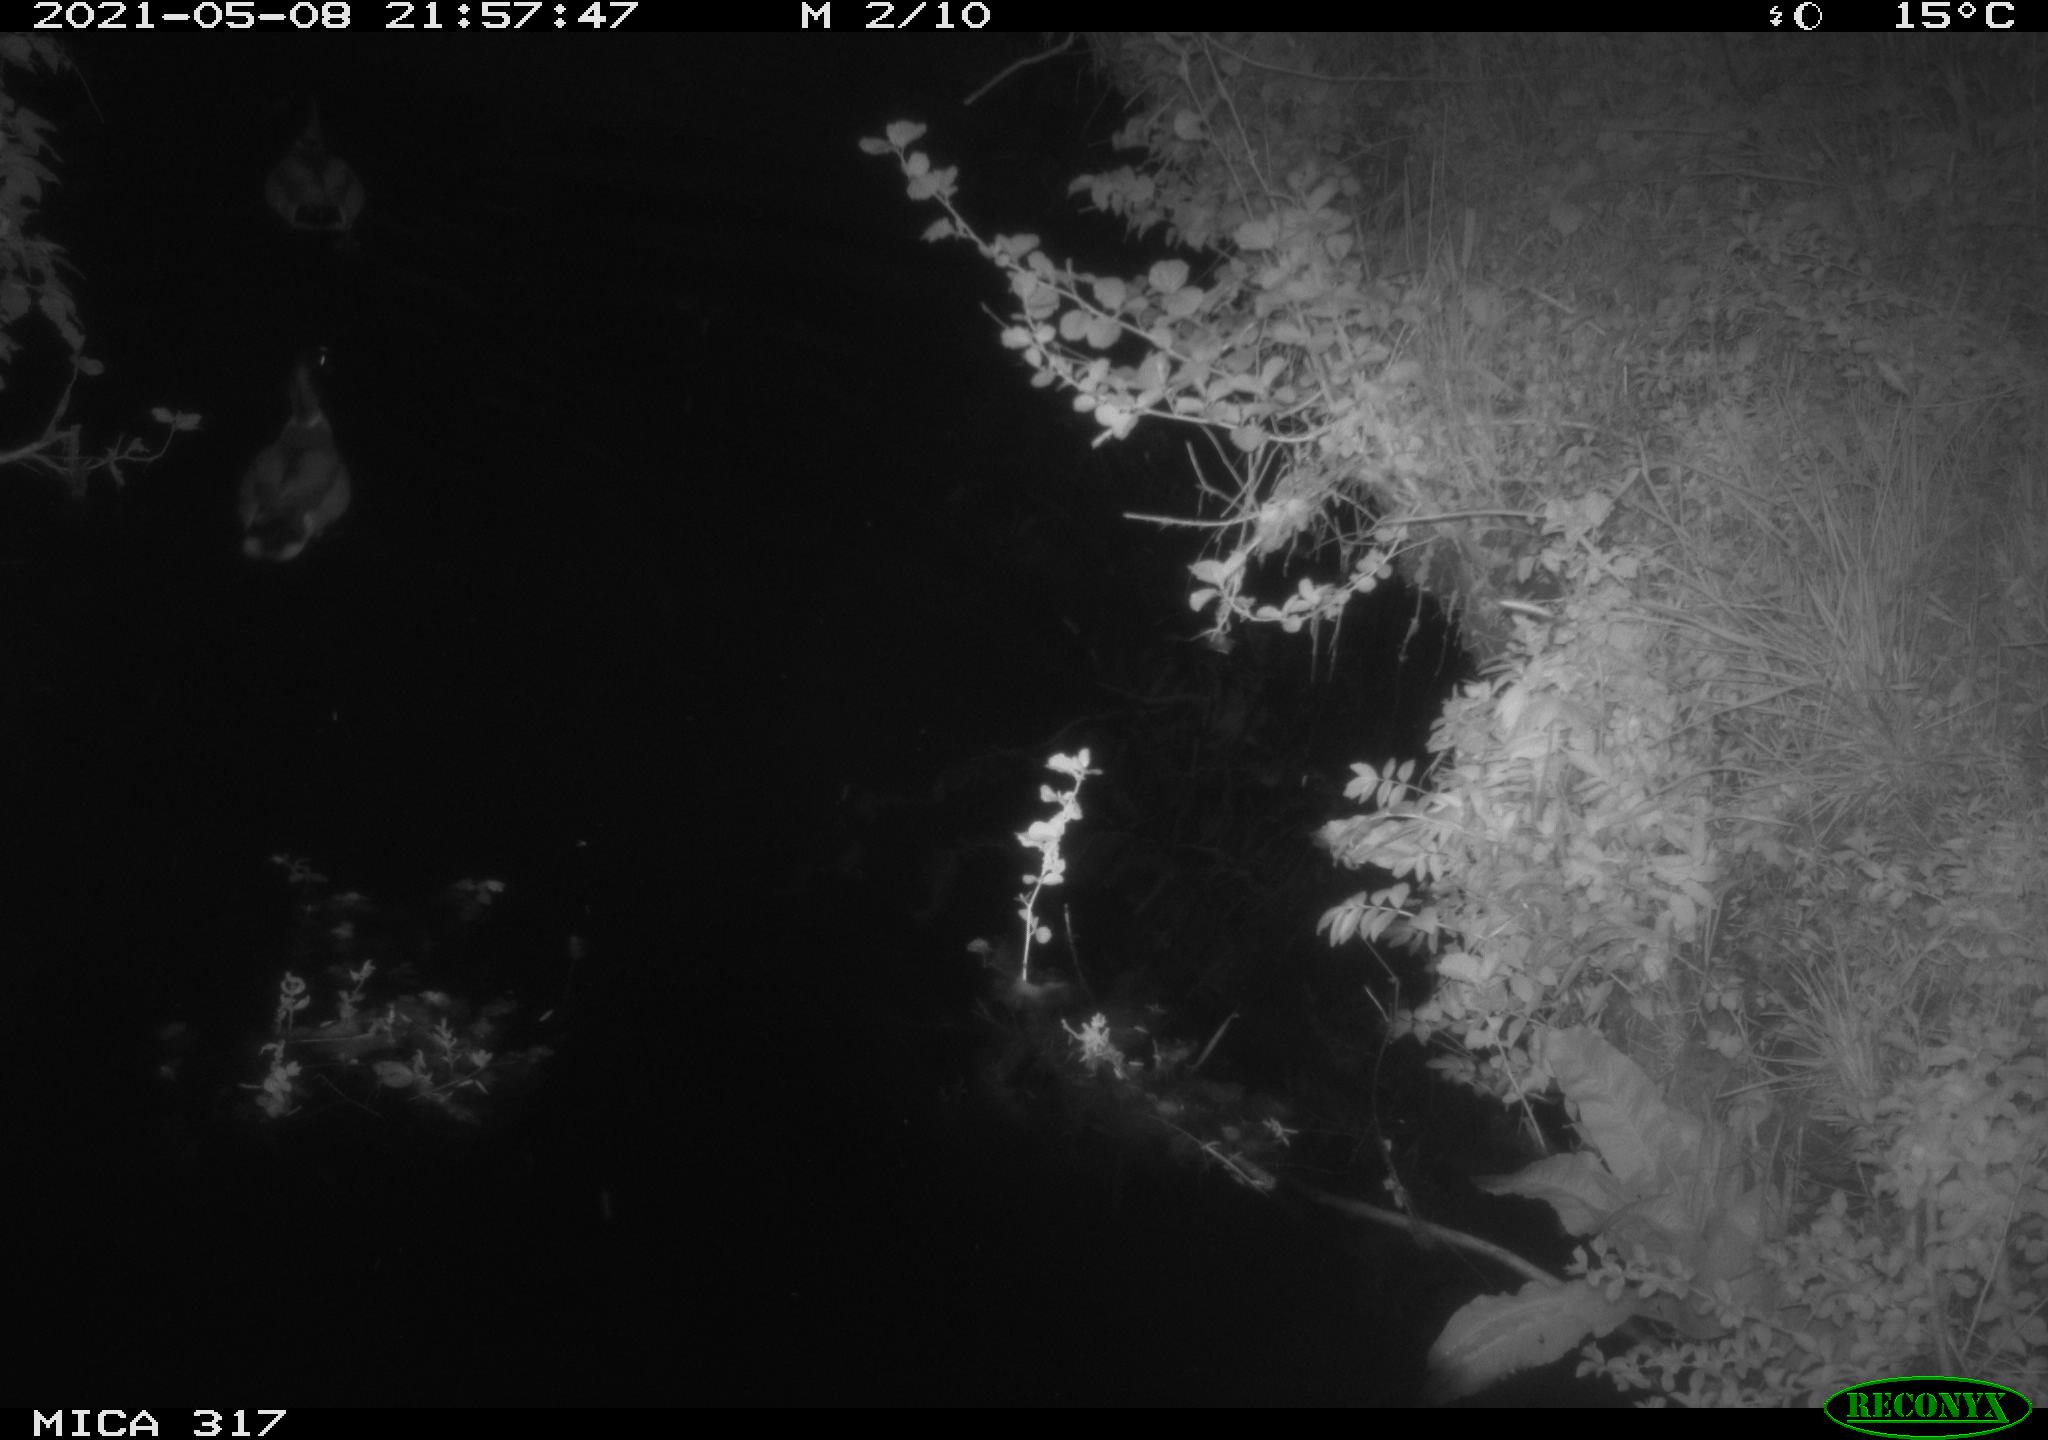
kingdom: Animalia
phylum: Chordata
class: Aves
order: Anseriformes
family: Anatidae
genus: Anas
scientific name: Anas
